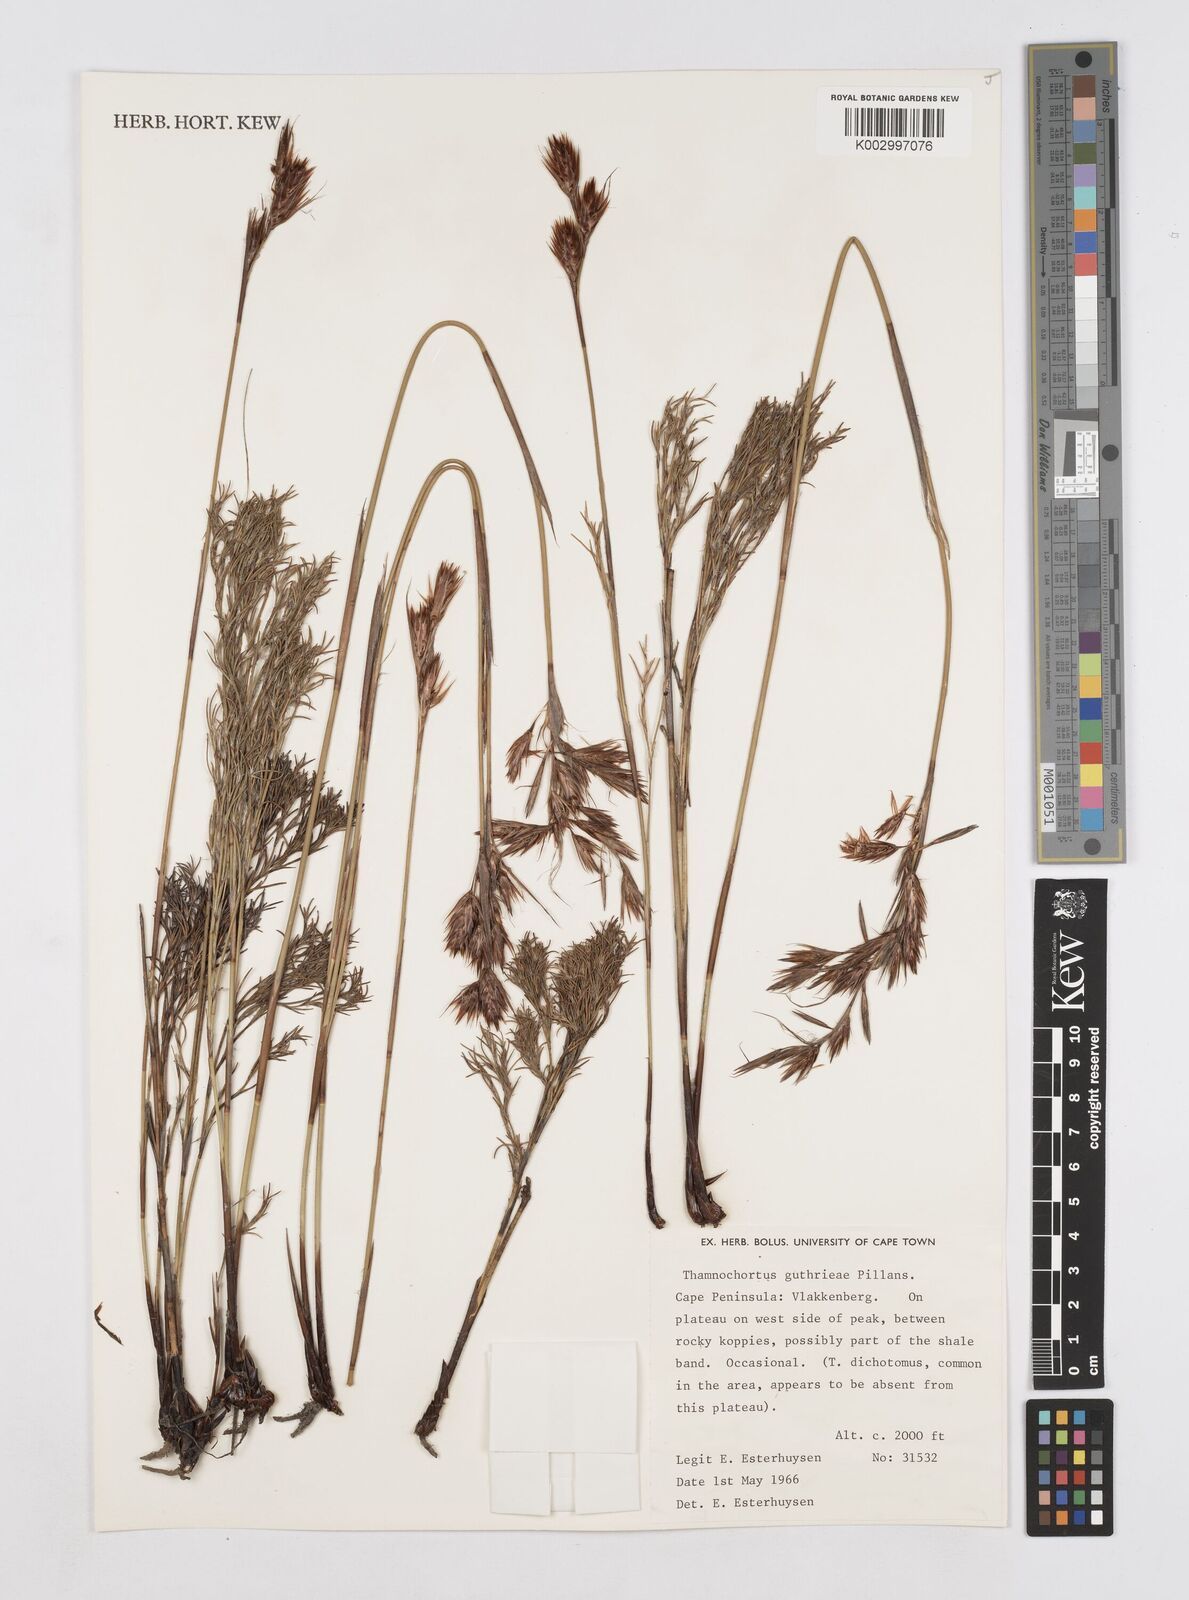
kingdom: Plantae
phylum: Tracheophyta
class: Liliopsida
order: Poales
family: Restionaceae
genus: Thamnochortus
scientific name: Thamnochortus guthrieae
